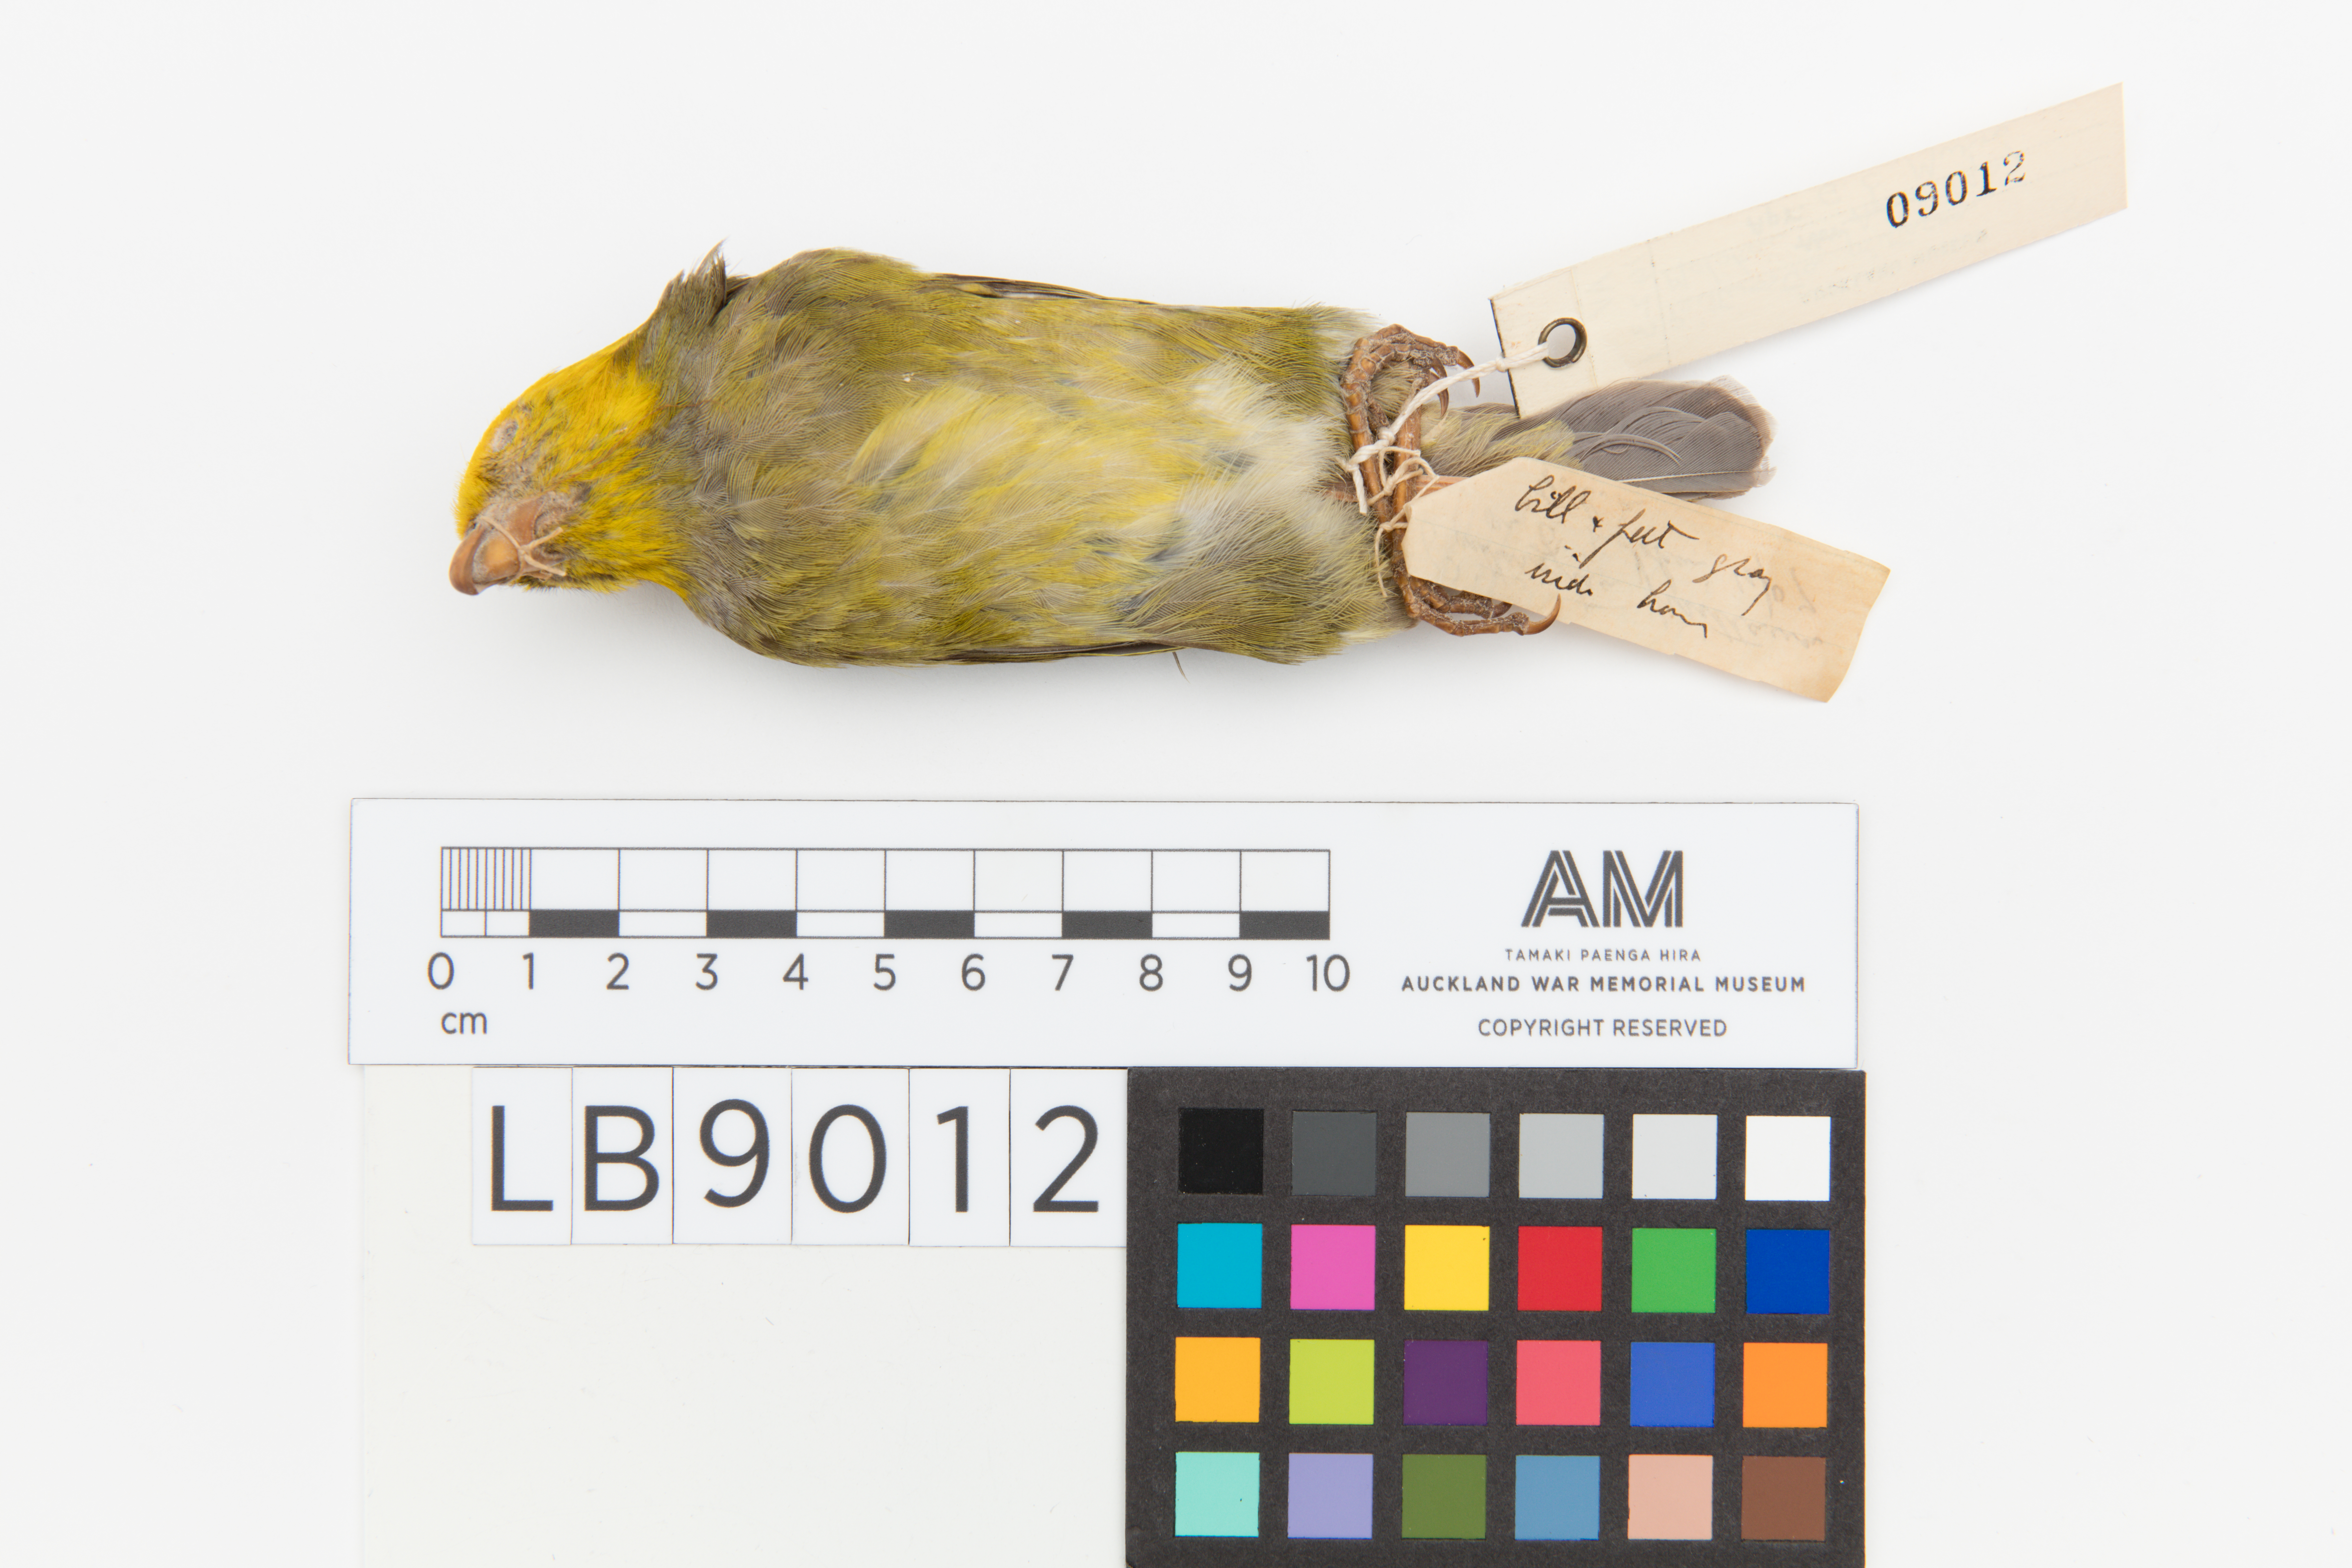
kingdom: Animalia
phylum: Chordata
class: Aves
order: Passeriformes
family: Fringillidae
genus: Psittirostra
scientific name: Psittirostra psittacea
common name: Ou
